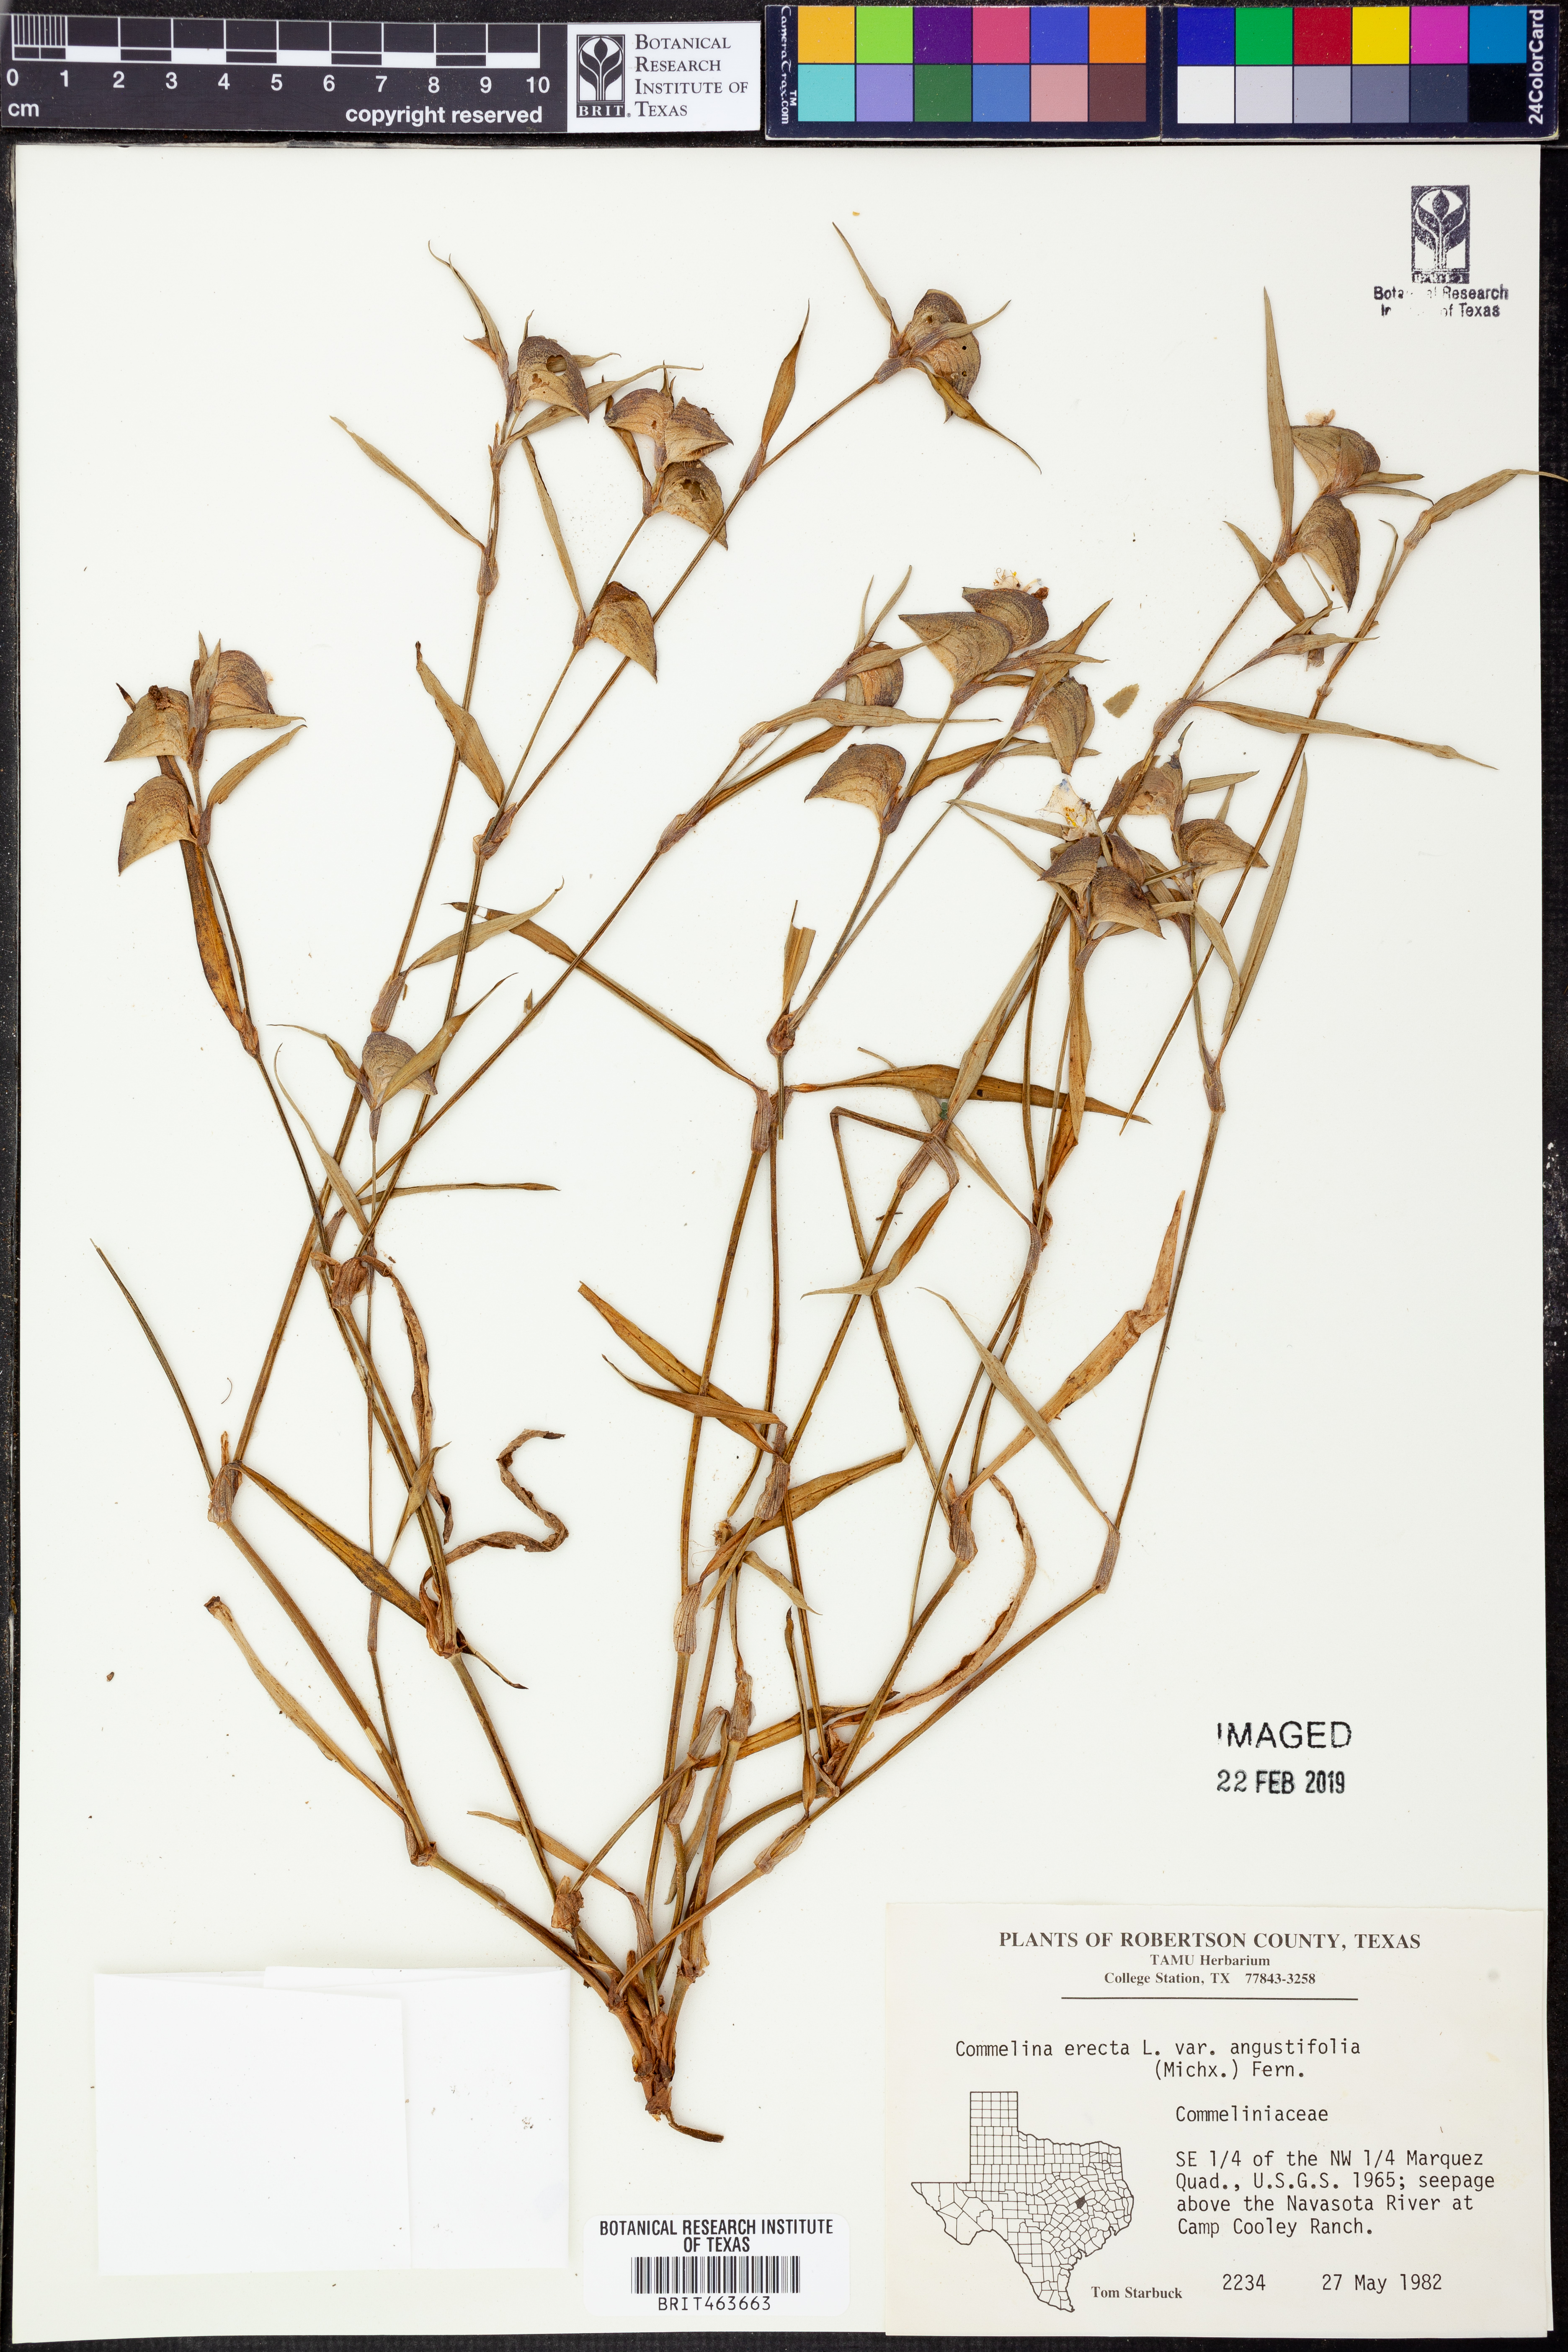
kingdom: Plantae
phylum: Tracheophyta
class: Liliopsida
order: Commelinales
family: Commelinaceae
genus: Commelina
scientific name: Commelina erecta
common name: Blousel blommetjie
